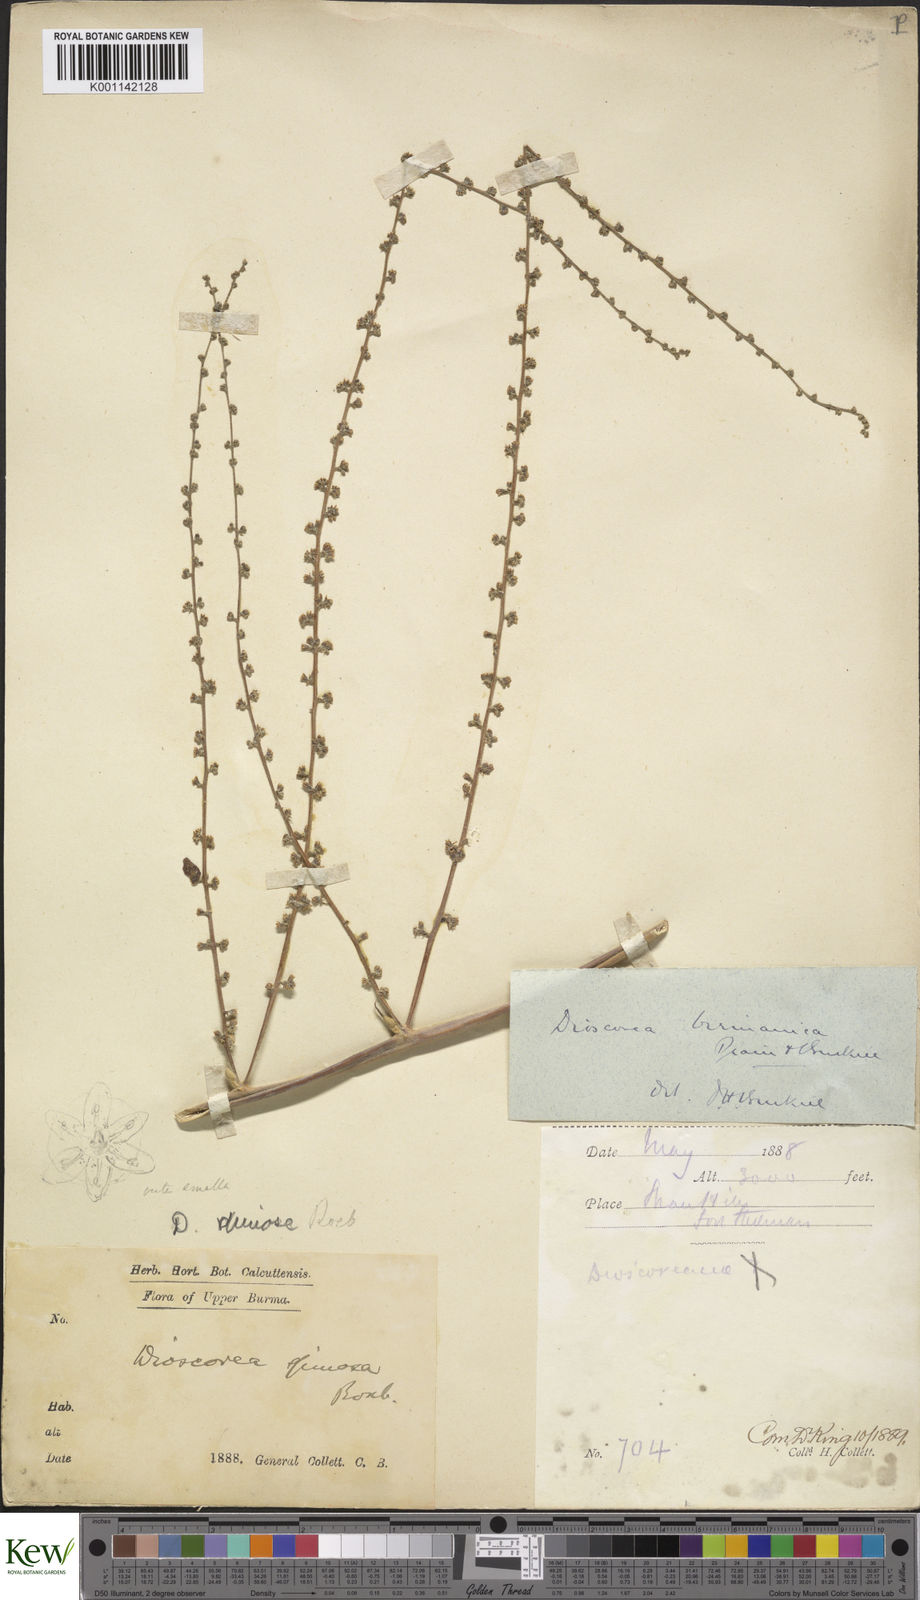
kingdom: Plantae
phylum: Tracheophyta
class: Liliopsida
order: Dioscoreales
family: Dioscoreaceae
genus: Dioscorea
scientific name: Dioscorea birmanica
